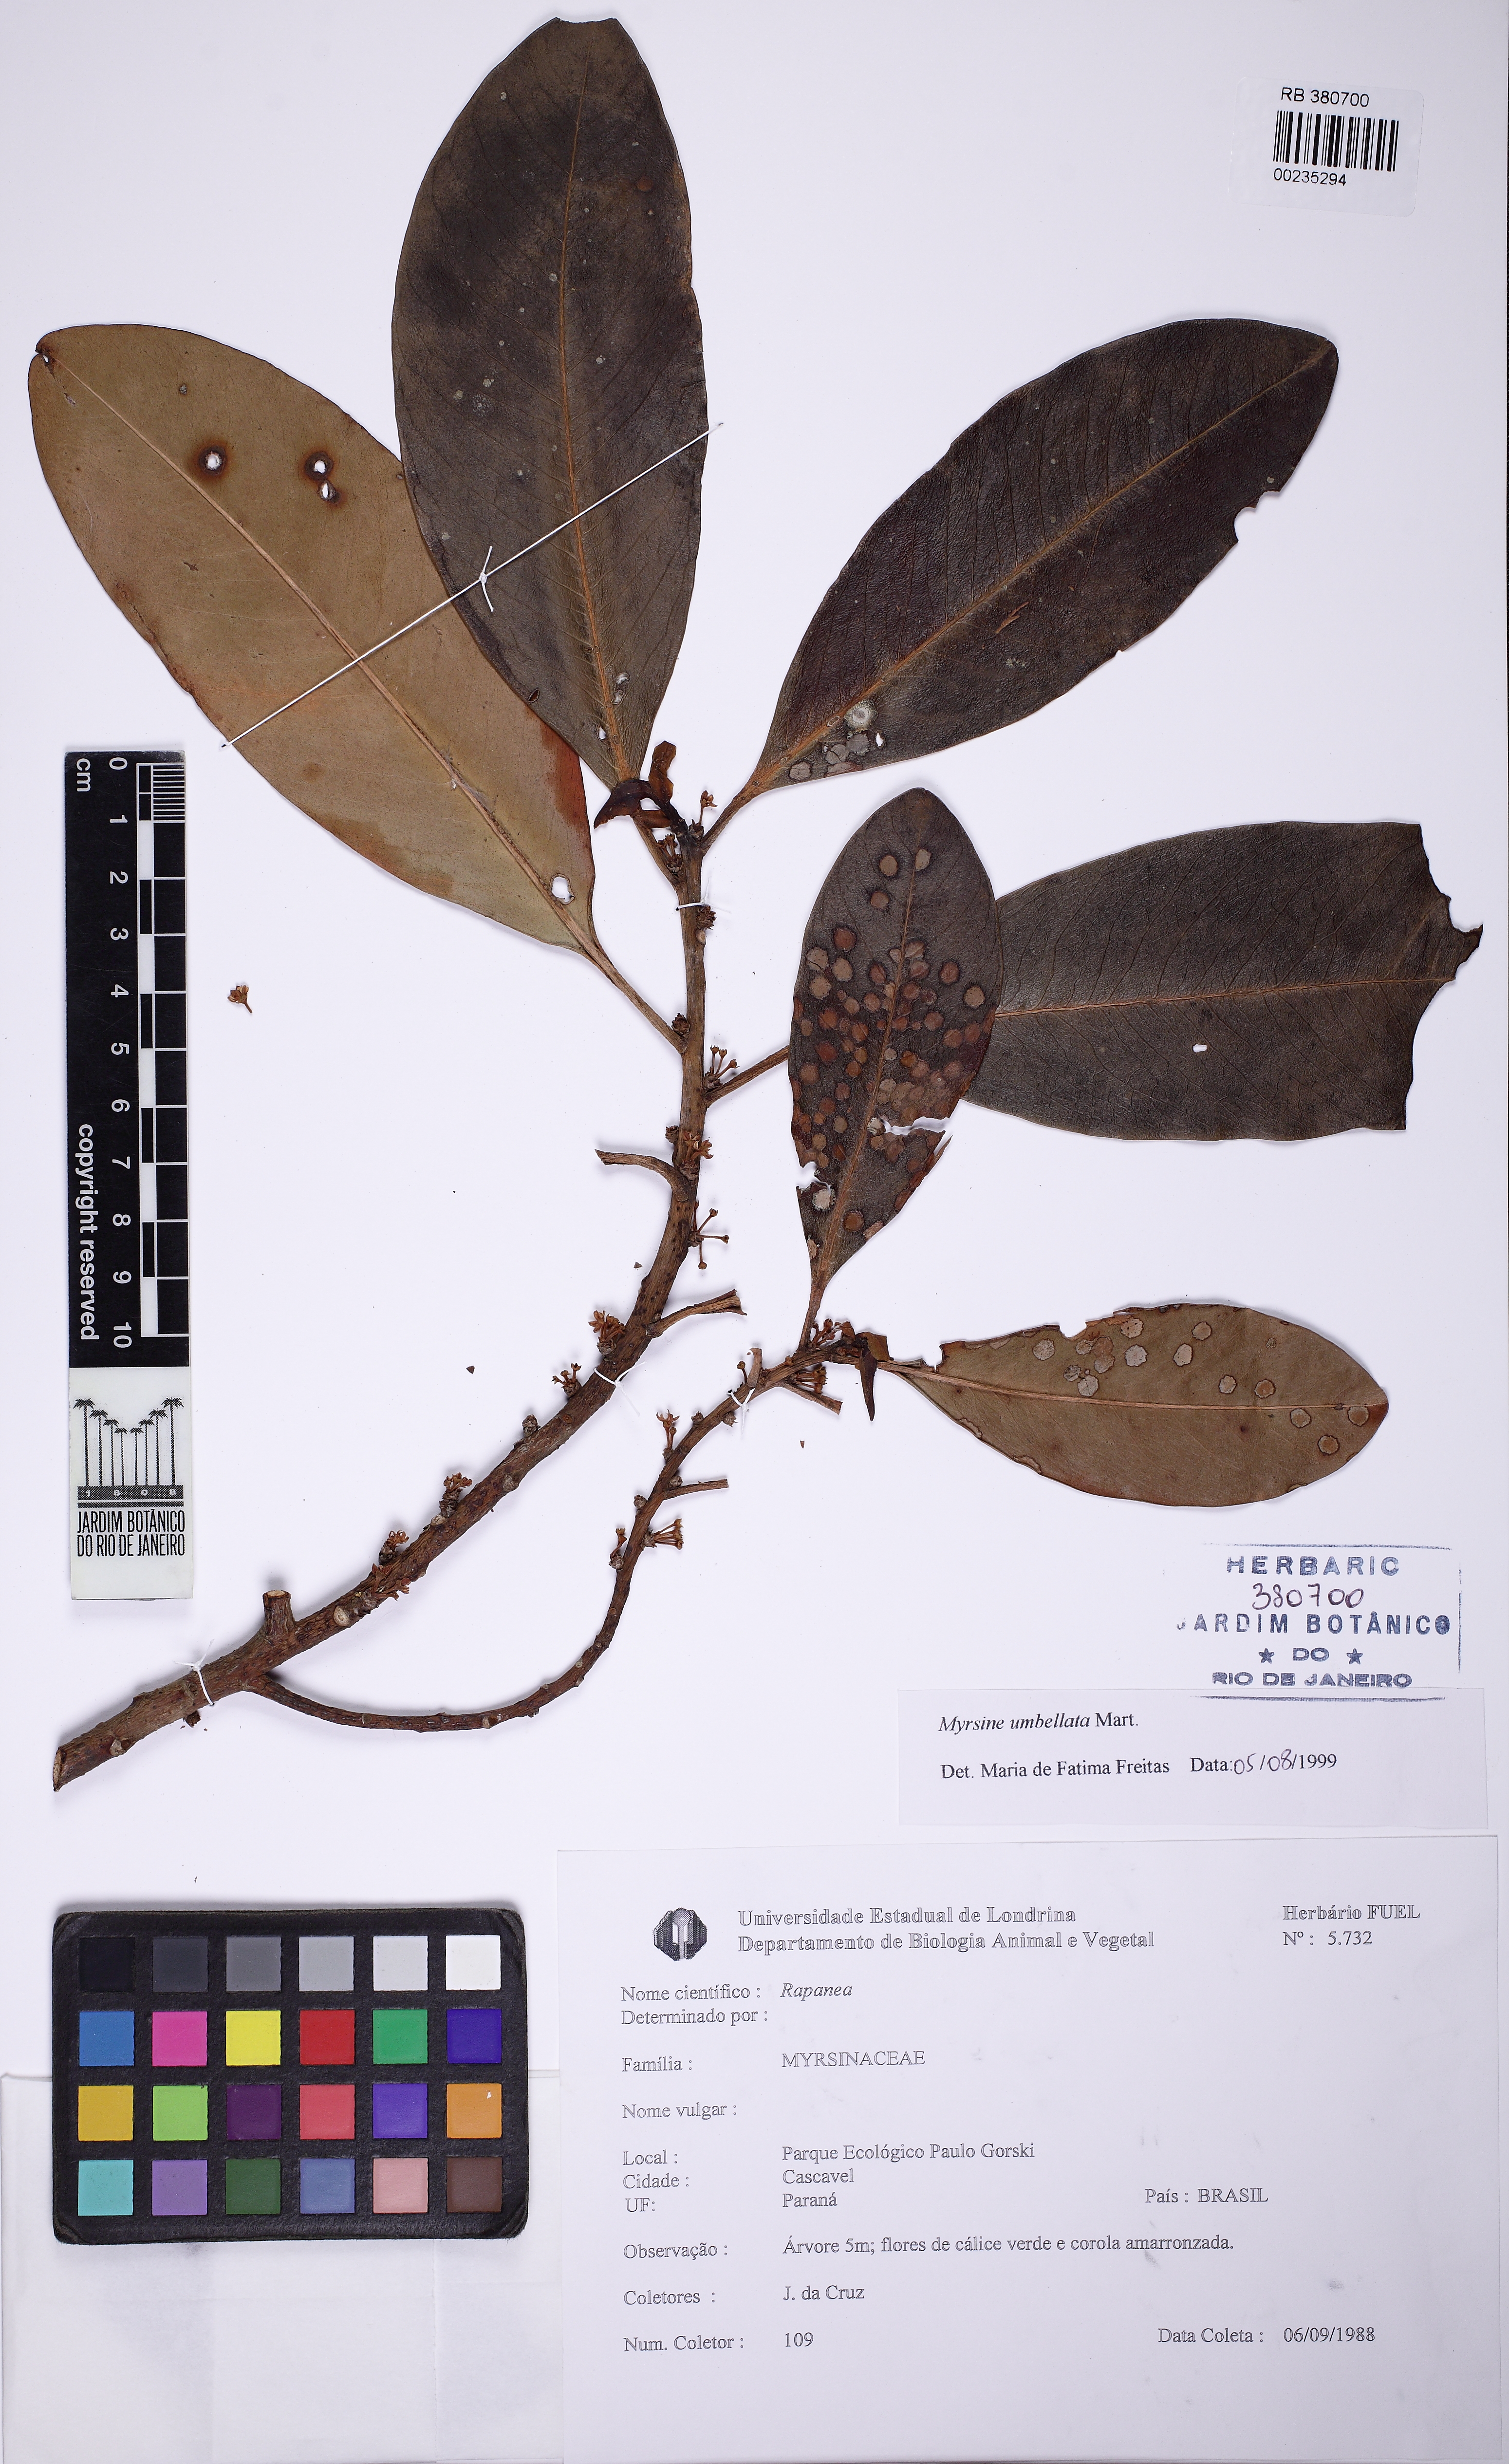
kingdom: Plantae
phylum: Tracheophyta
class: Magnoliopsida
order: Ericales
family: Primulaceae
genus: Myrsine
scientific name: Myrsine umbellata
